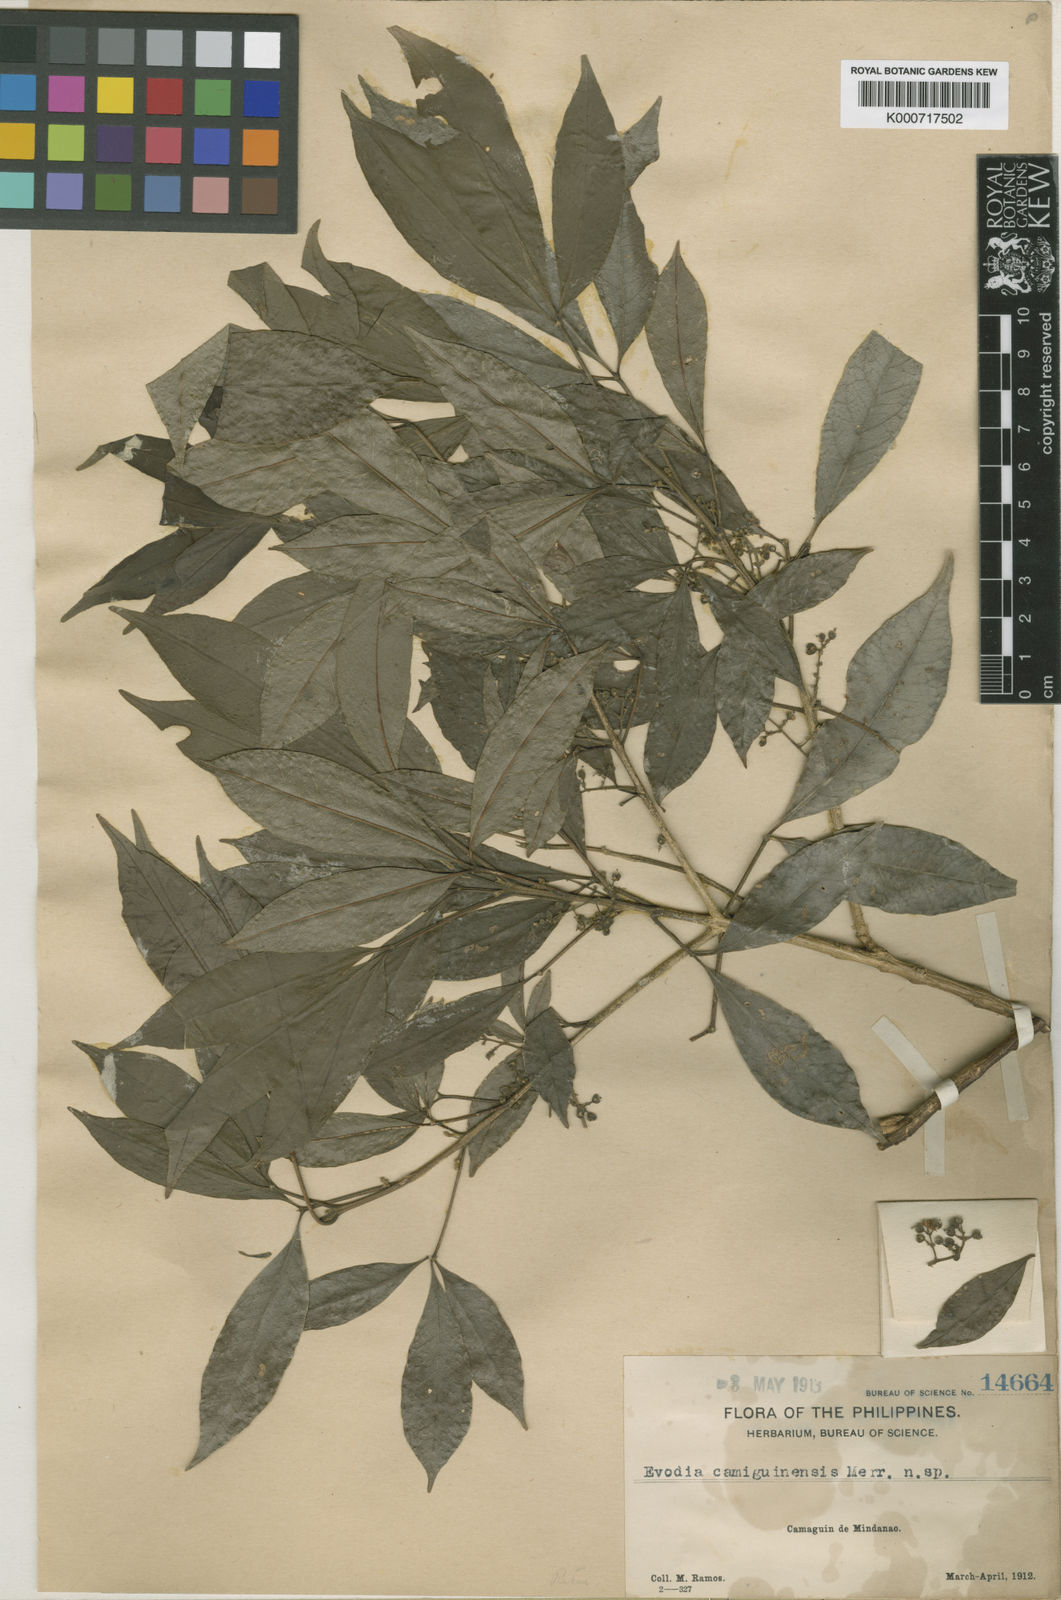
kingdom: Plantae
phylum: Tracheophyta
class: Magnoliopsida
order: Sapindales
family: Rutaceae
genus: Melicope
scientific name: Melicope semecarpifolia
